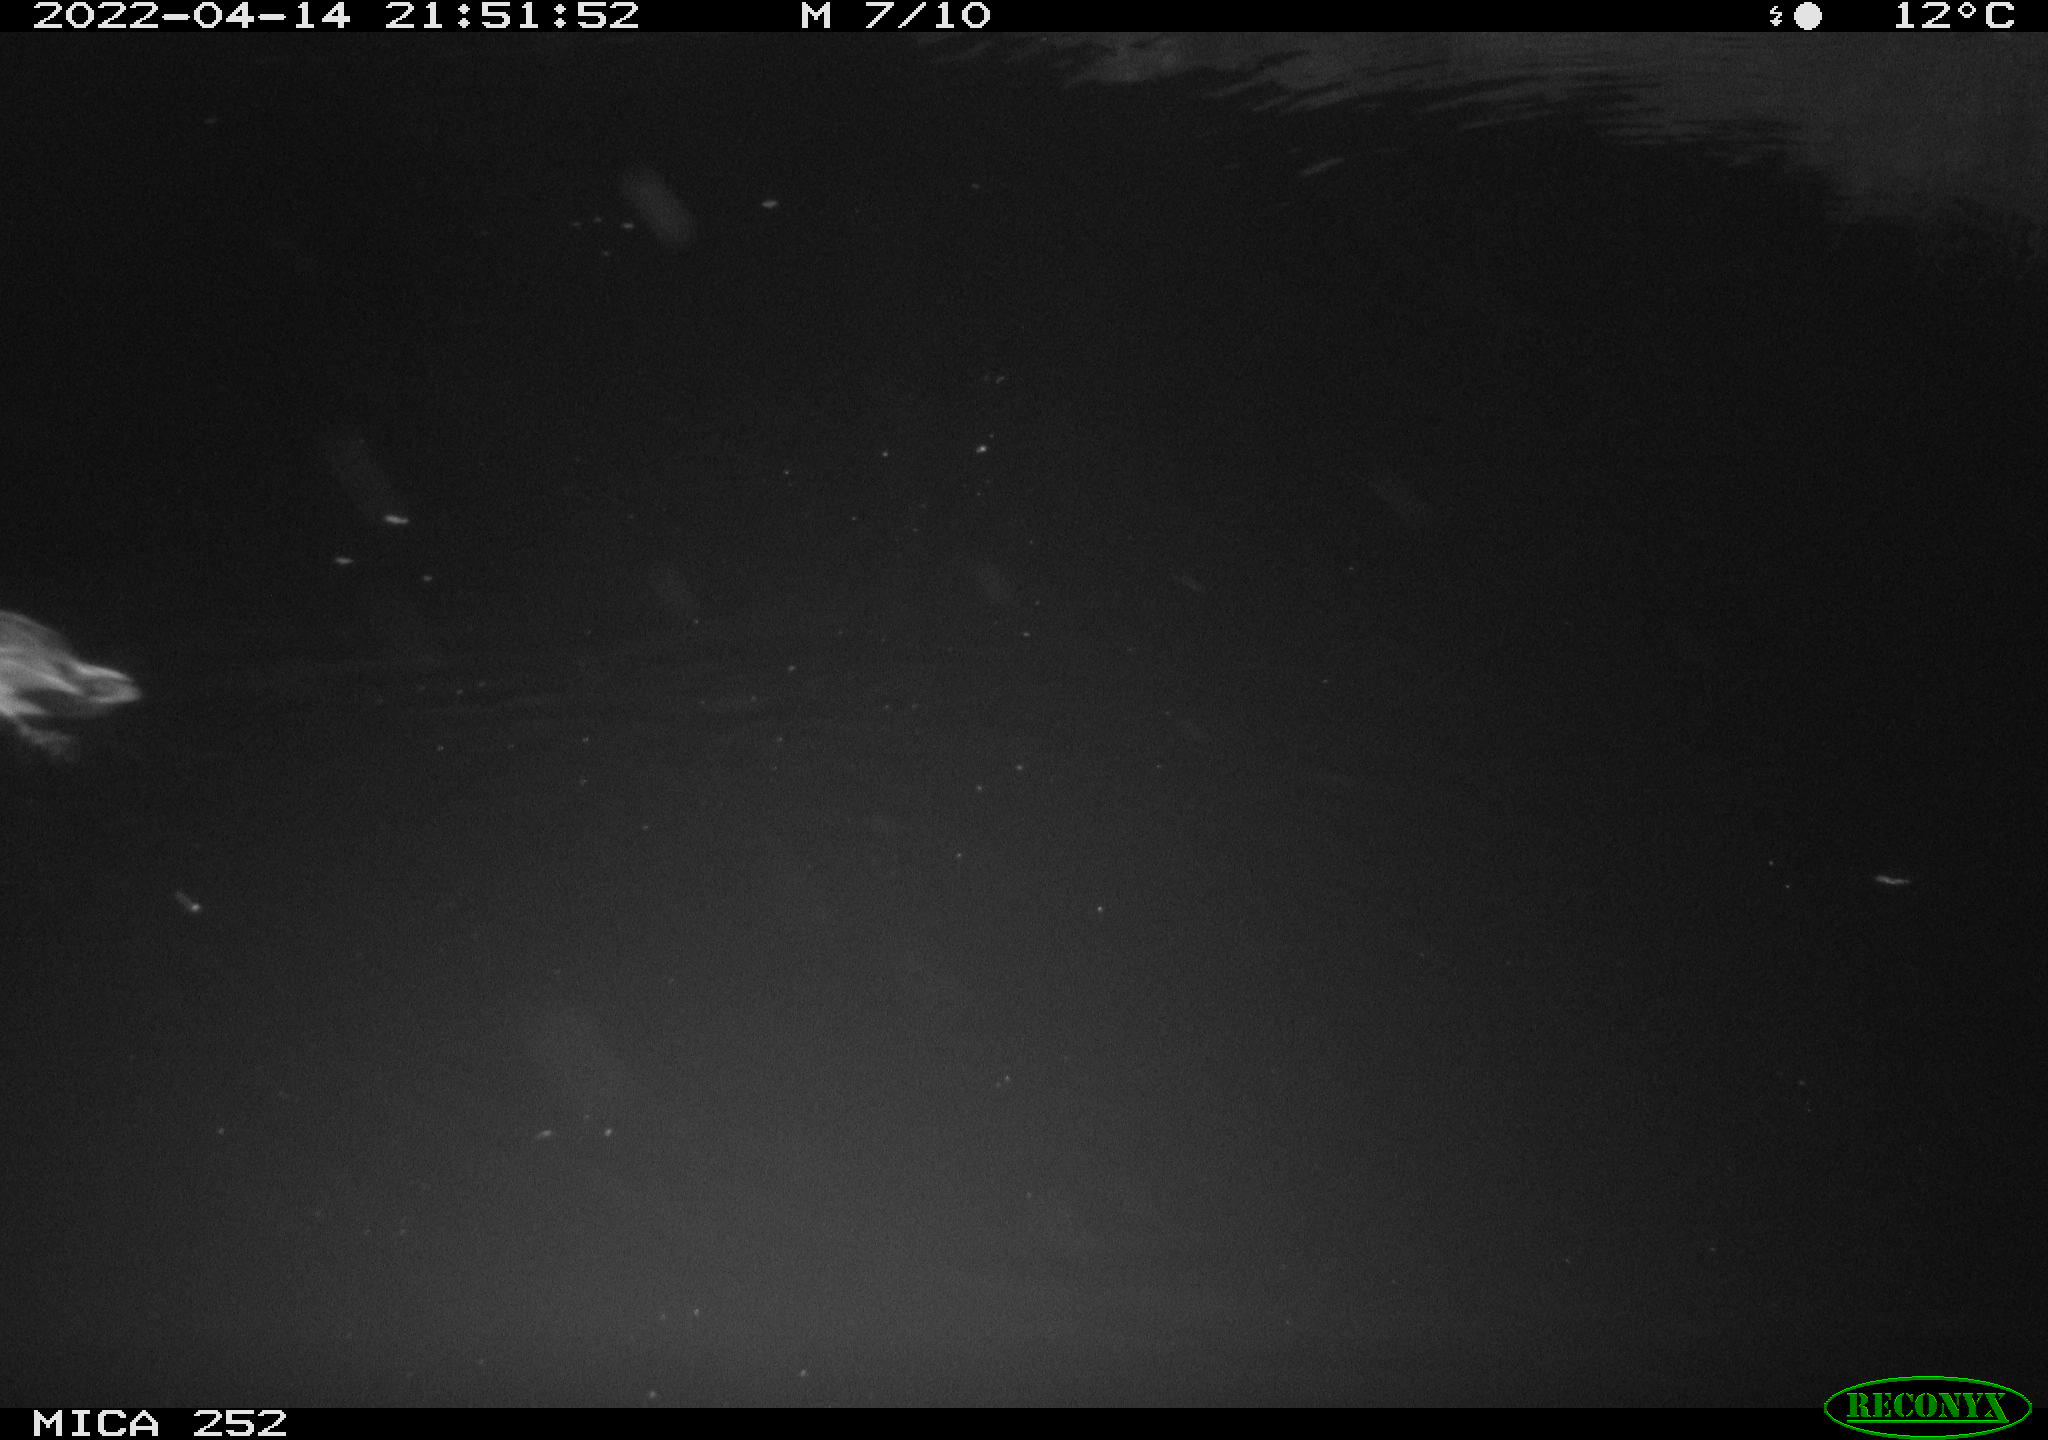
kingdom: Animalia
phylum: Chordata
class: Aves
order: Anseriformes
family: Anatidae
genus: Anas
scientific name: Anas platyrhynchos
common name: Mallard
